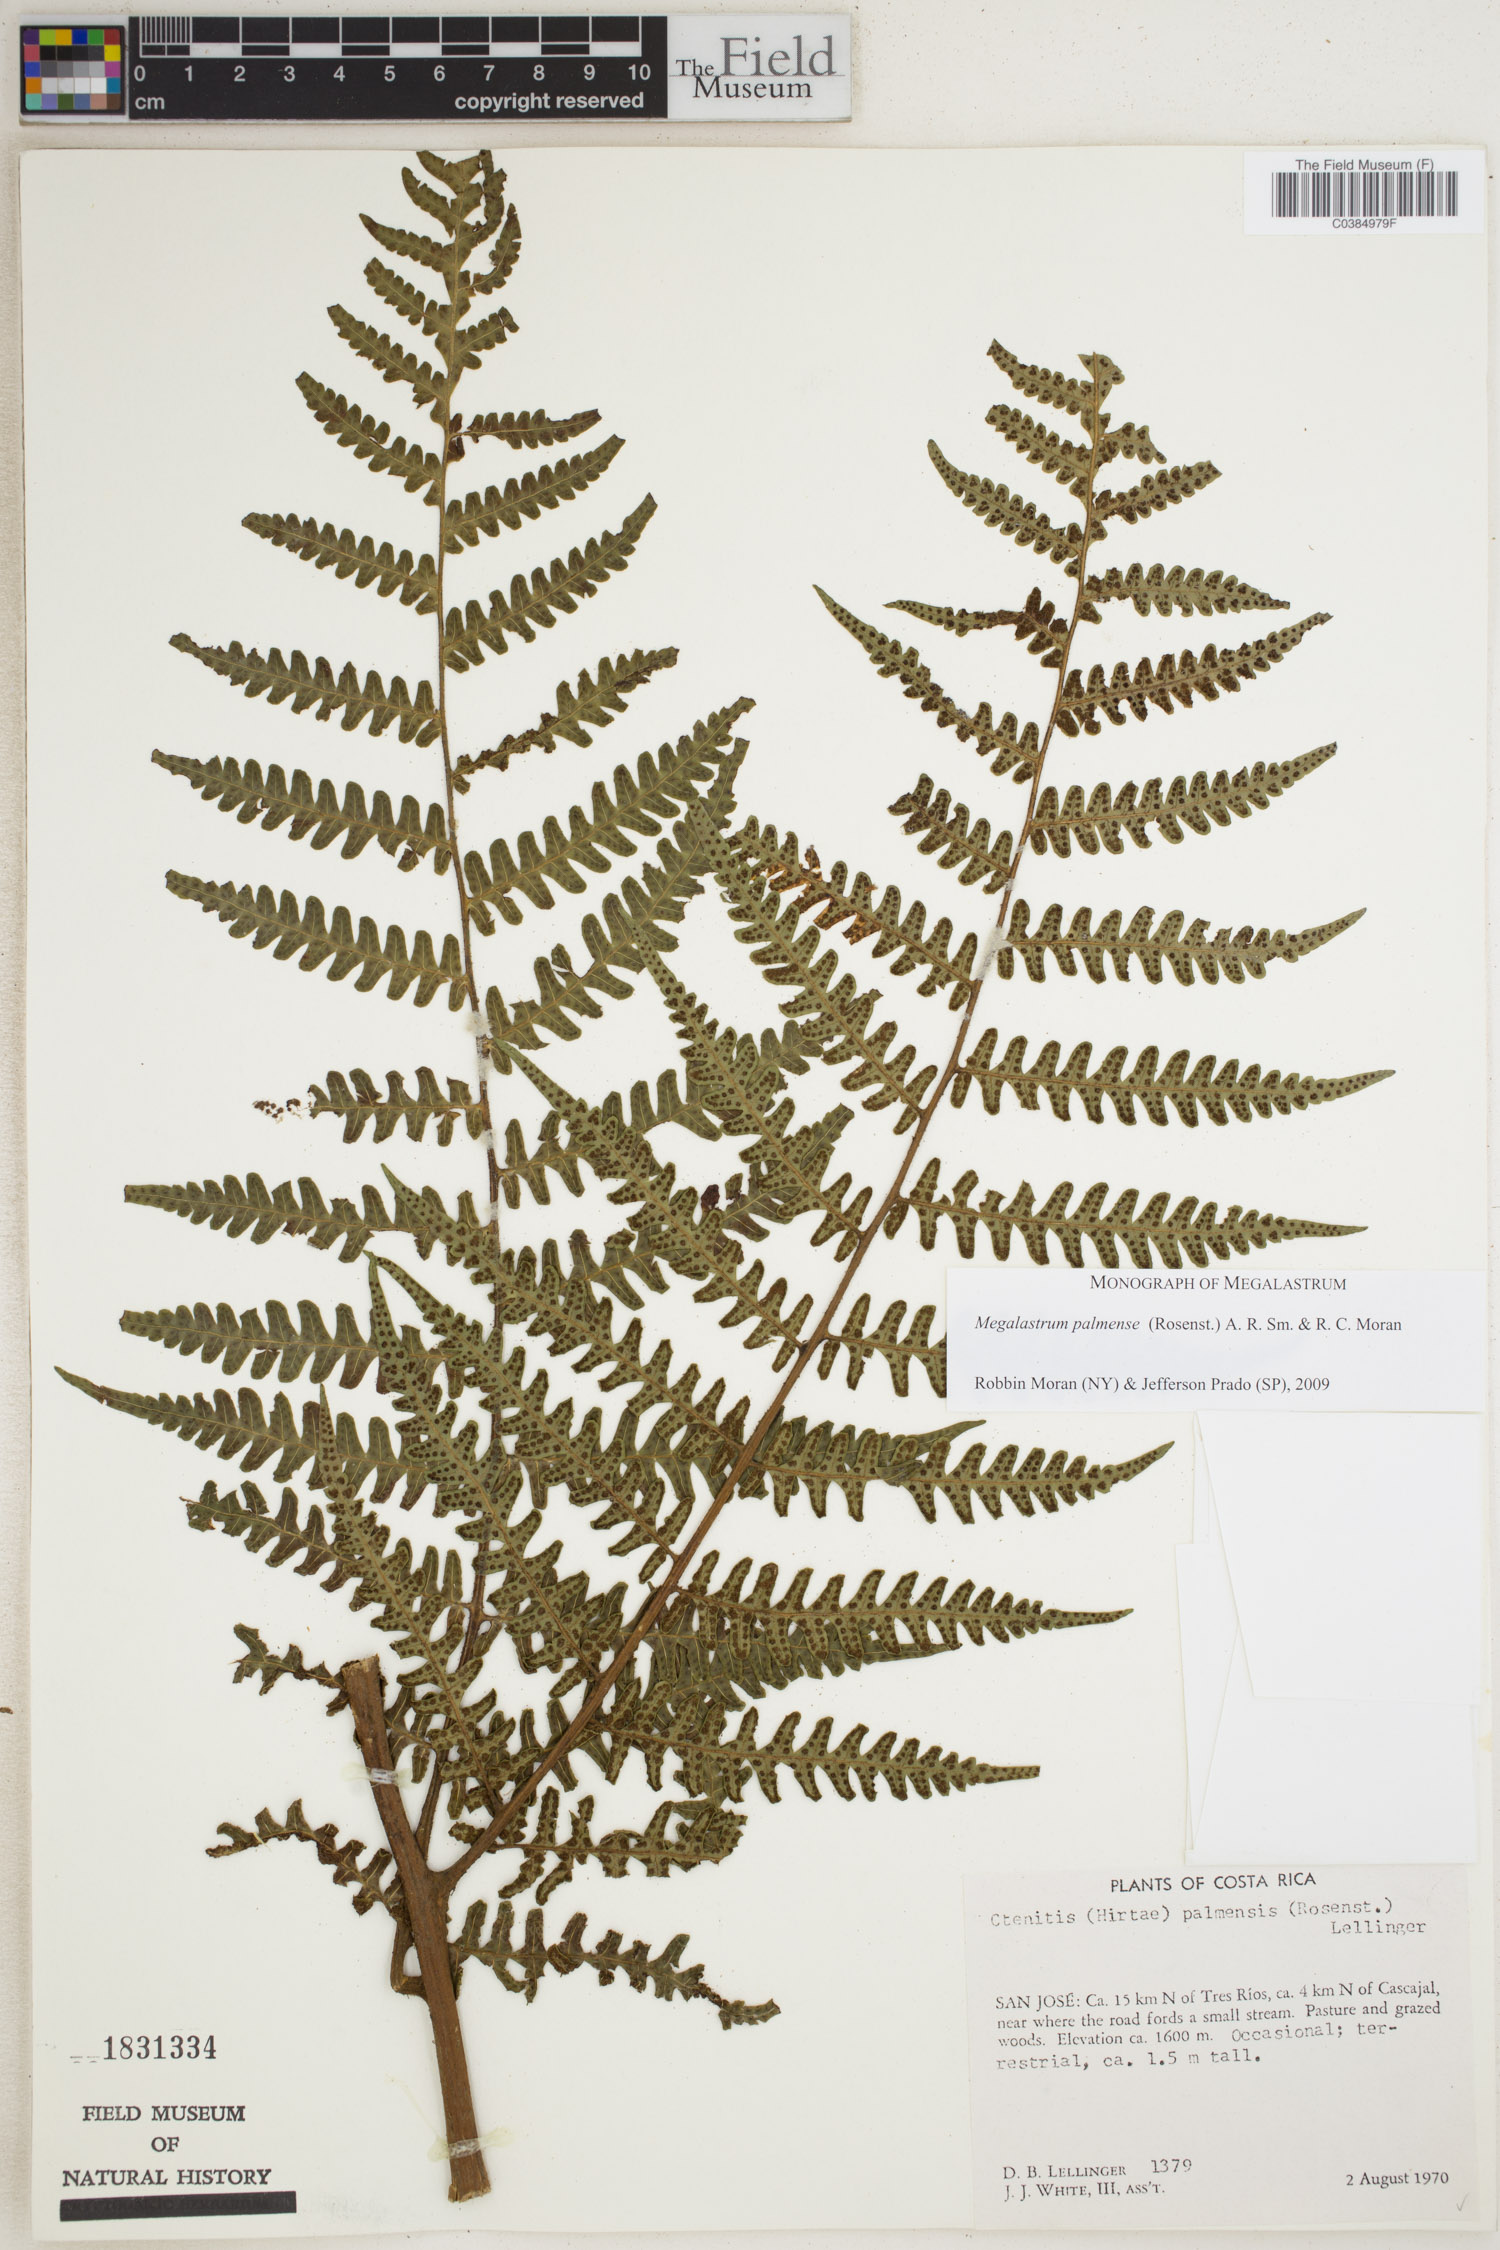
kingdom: Plantae
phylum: Tracheophyta
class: Polypodiopsida
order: Polypodiales
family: Dryopteridaceae
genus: Megalastrum
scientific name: Megalastrum palmense
